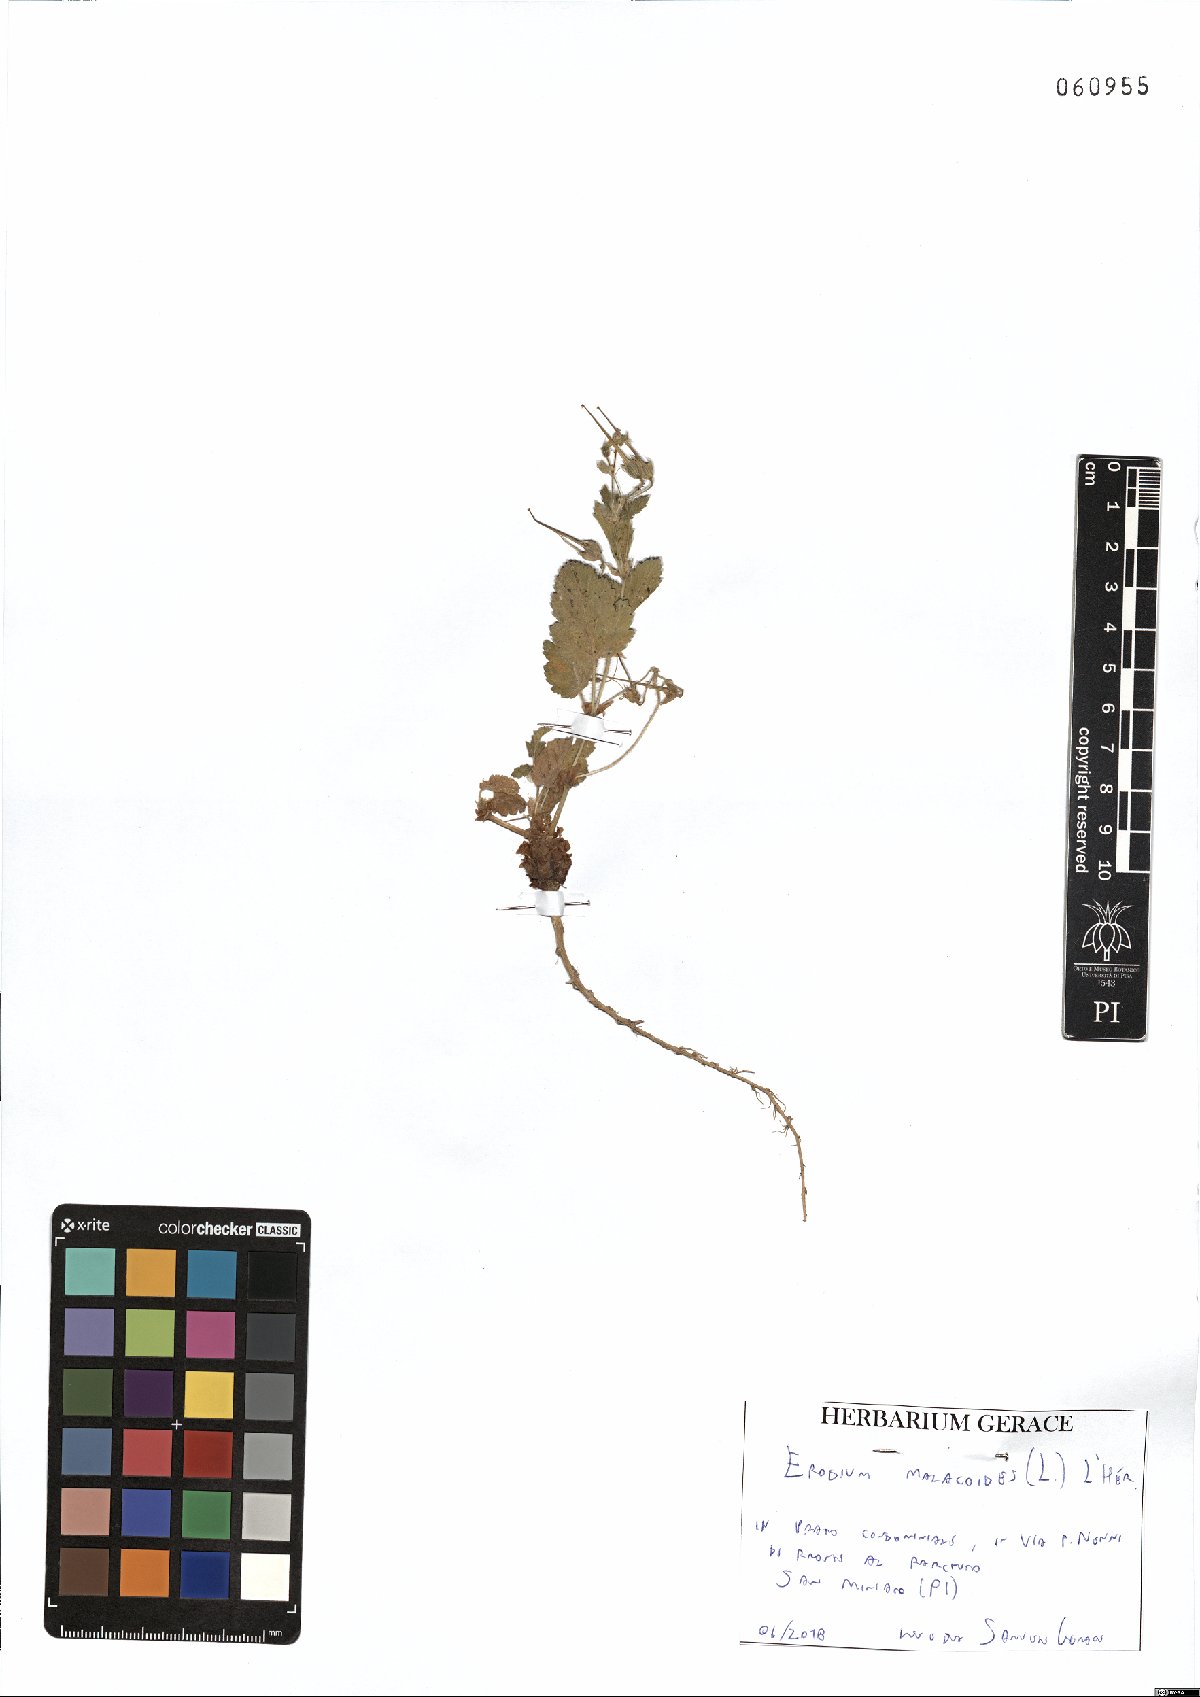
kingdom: Plantae
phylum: Tracheophyta
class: Magnoliopsida
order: Geraniales
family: Geraniaceae
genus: Erodium
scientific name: Erodium malacoides
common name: Soft stork's-bill
